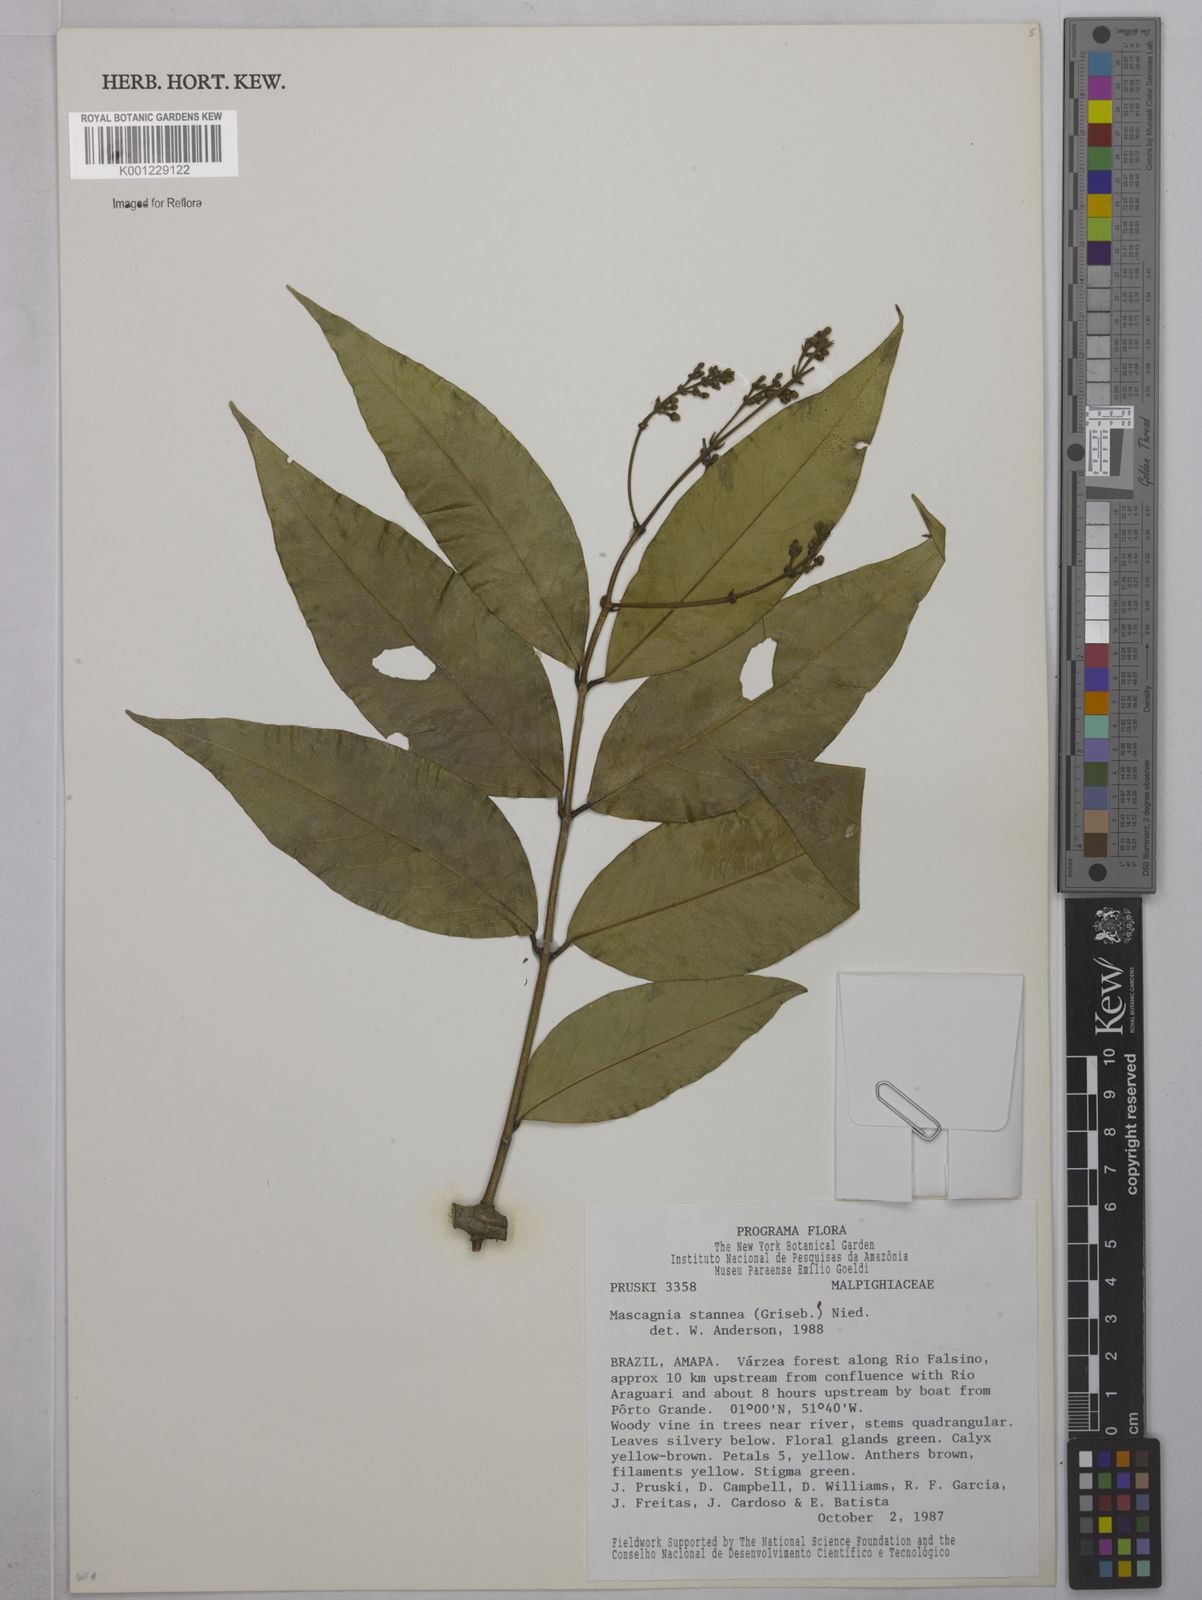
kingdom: Plantae
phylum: Tracheophyta
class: Magnoliopsida
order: Malpighiales
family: Malpighiaceae
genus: Niedenzuella
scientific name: Niedenzuella stannea
